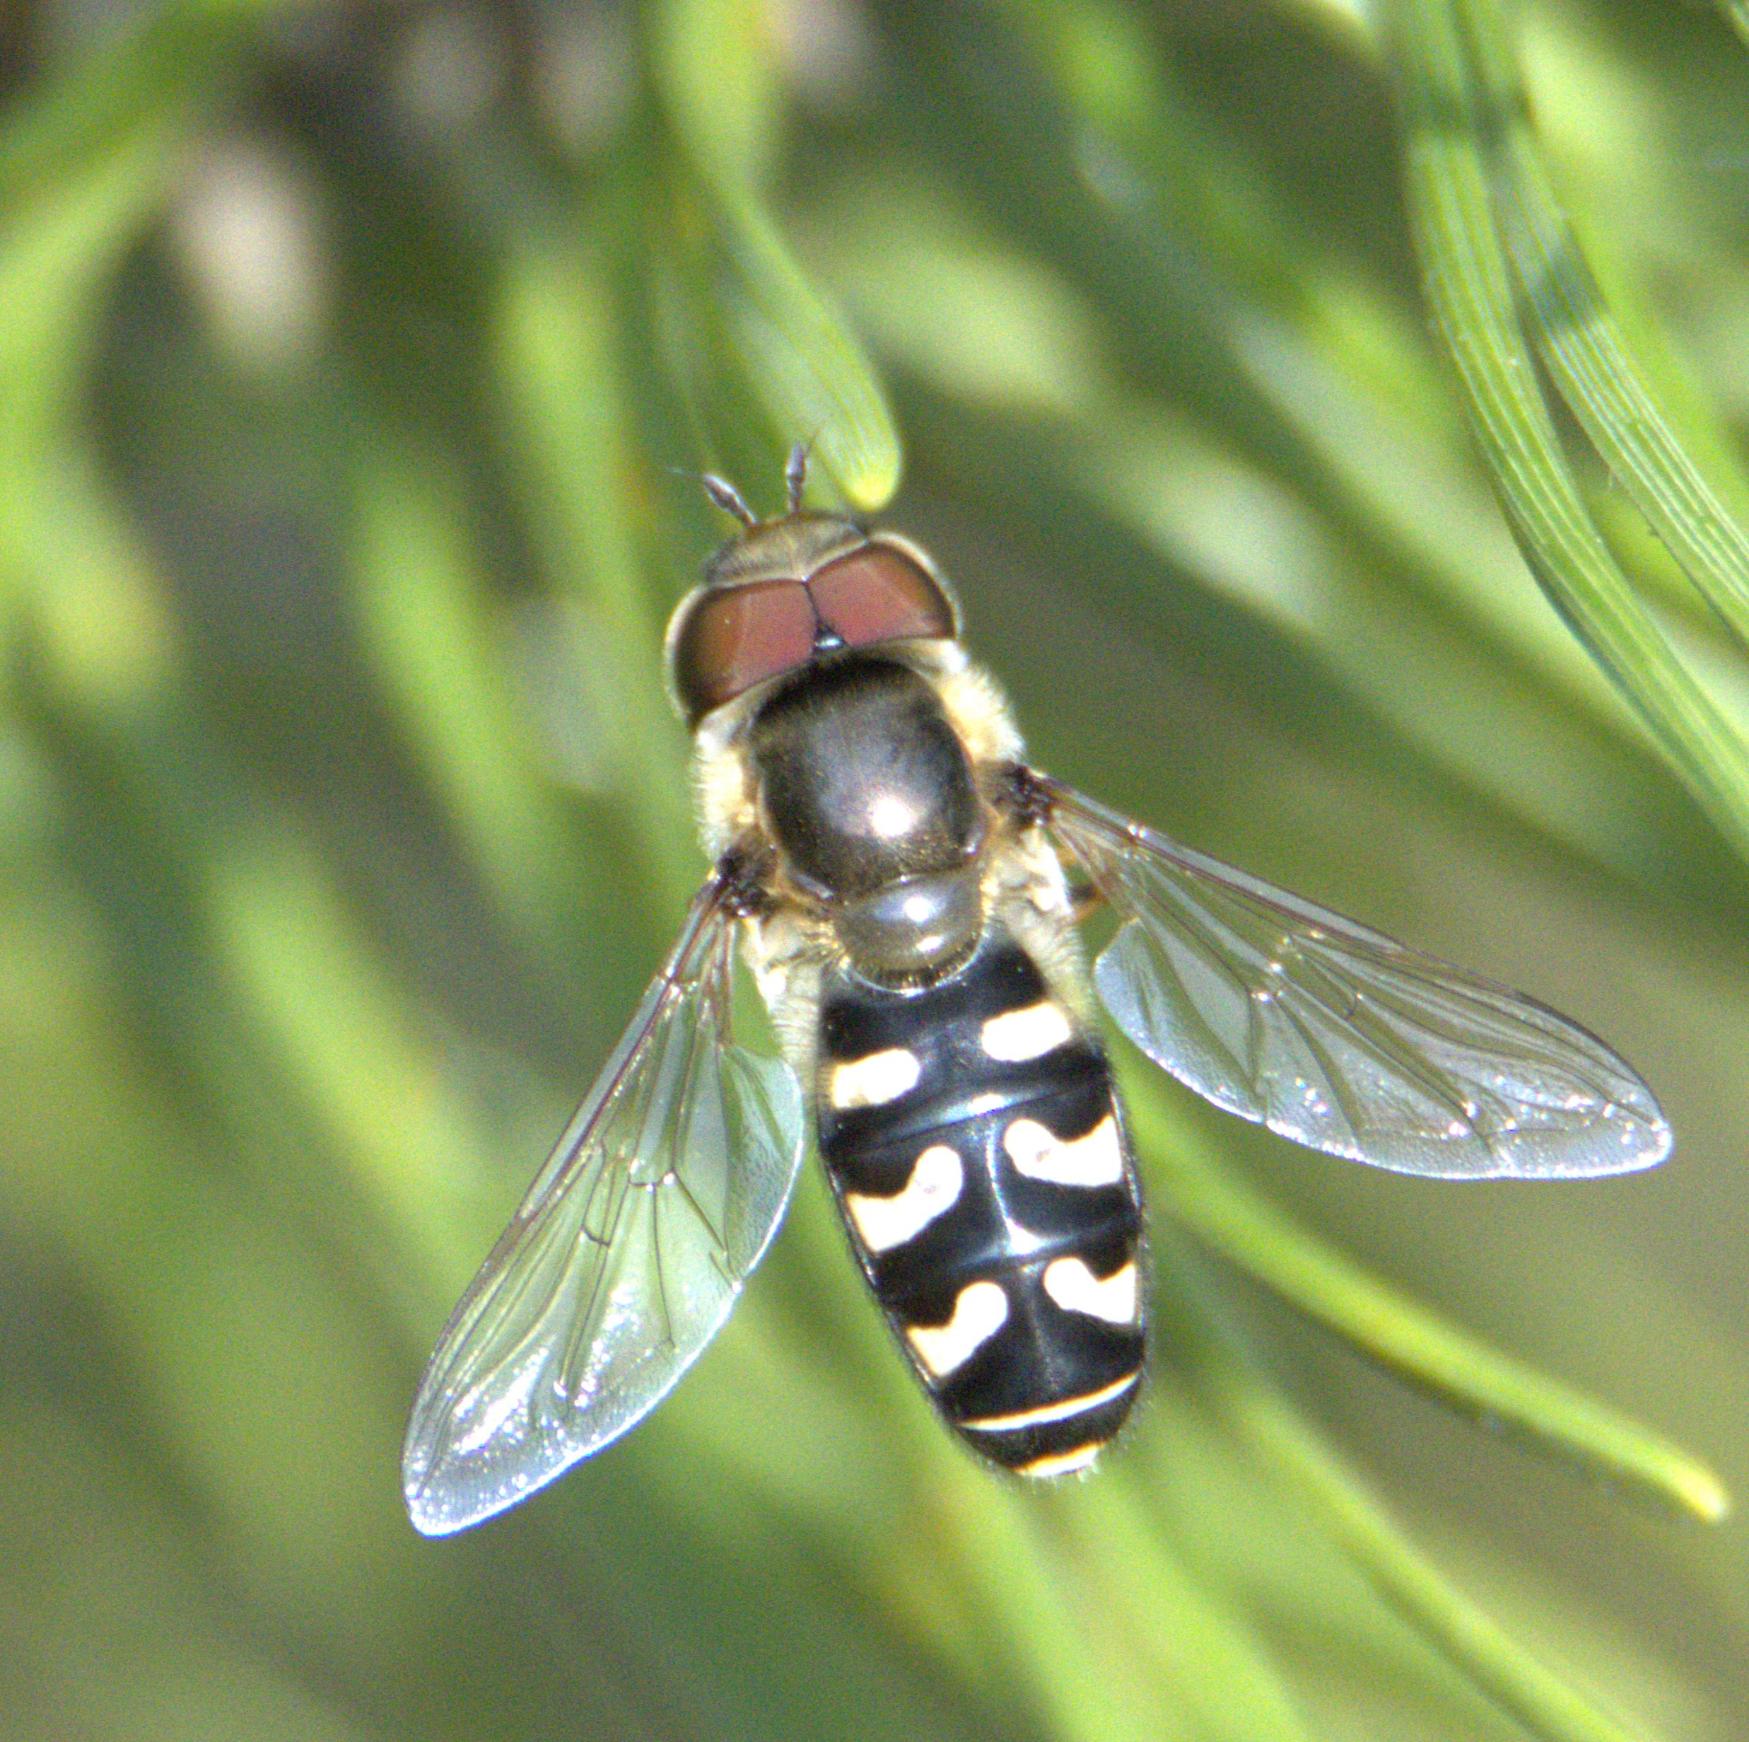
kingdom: Animalia
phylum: Arthropoda
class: Insecta
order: Diptera
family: Syrphidae
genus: Scaeva
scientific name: Scaeva pyrastri
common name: Hvidplettet agersvirreflue
